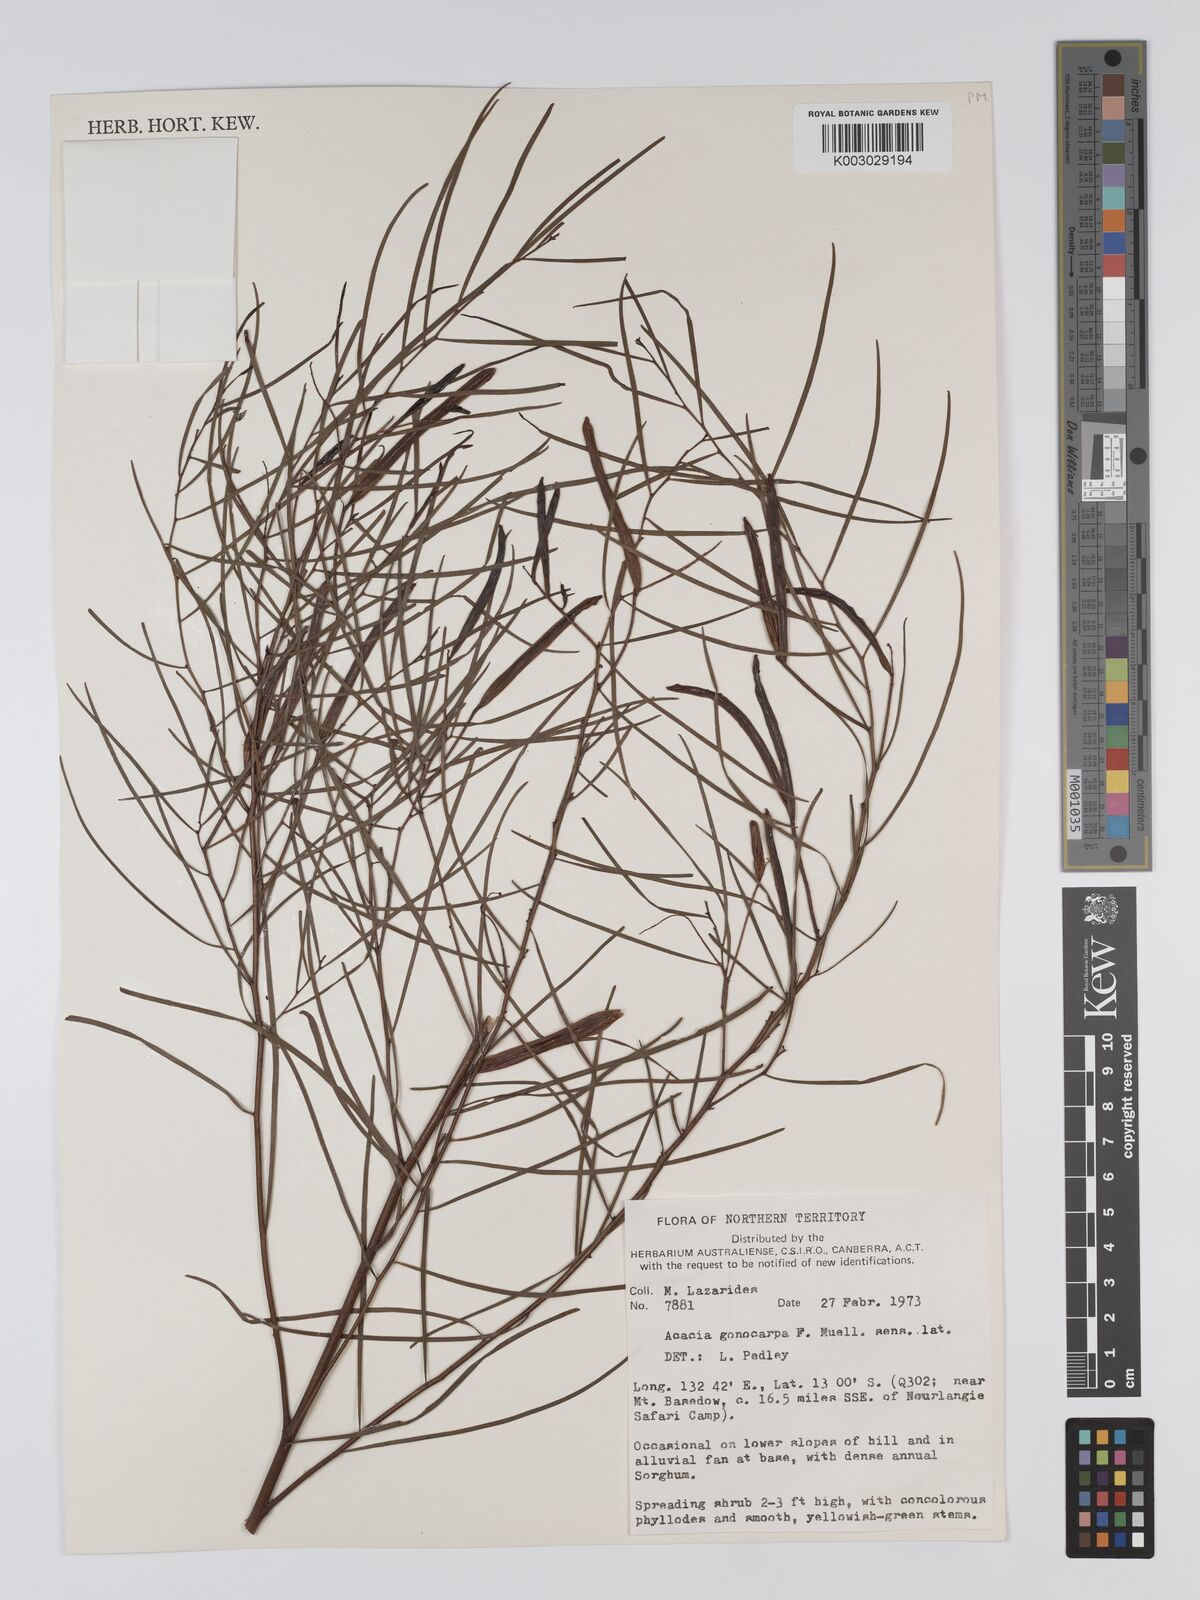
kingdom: Plantae
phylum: Tracheophyta
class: Magnoliopsida
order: Fabales
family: Fabaceae
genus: Acacia
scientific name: Acacia gonocarpa
